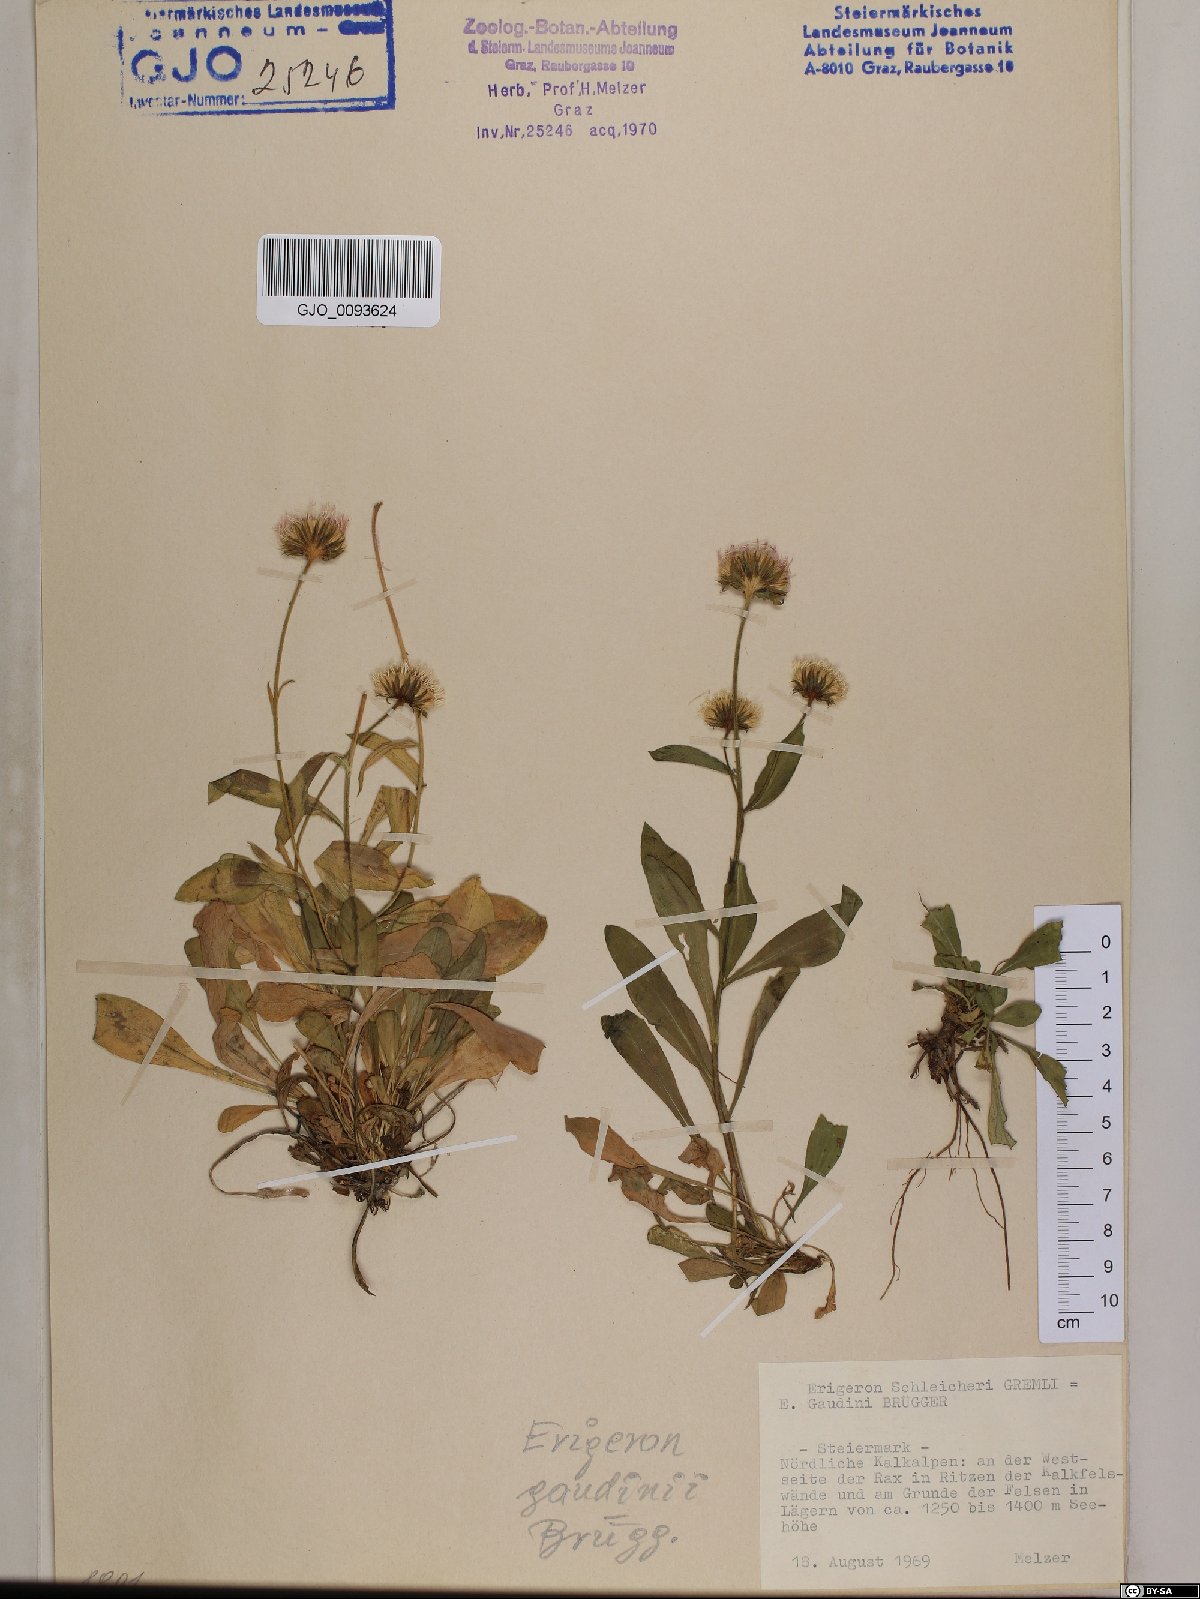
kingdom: Plantae
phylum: Tracheophyta
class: Magnoliopsida
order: Asterales
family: Asteraceae
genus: Erigeron
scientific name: Erigeron schleicheri
